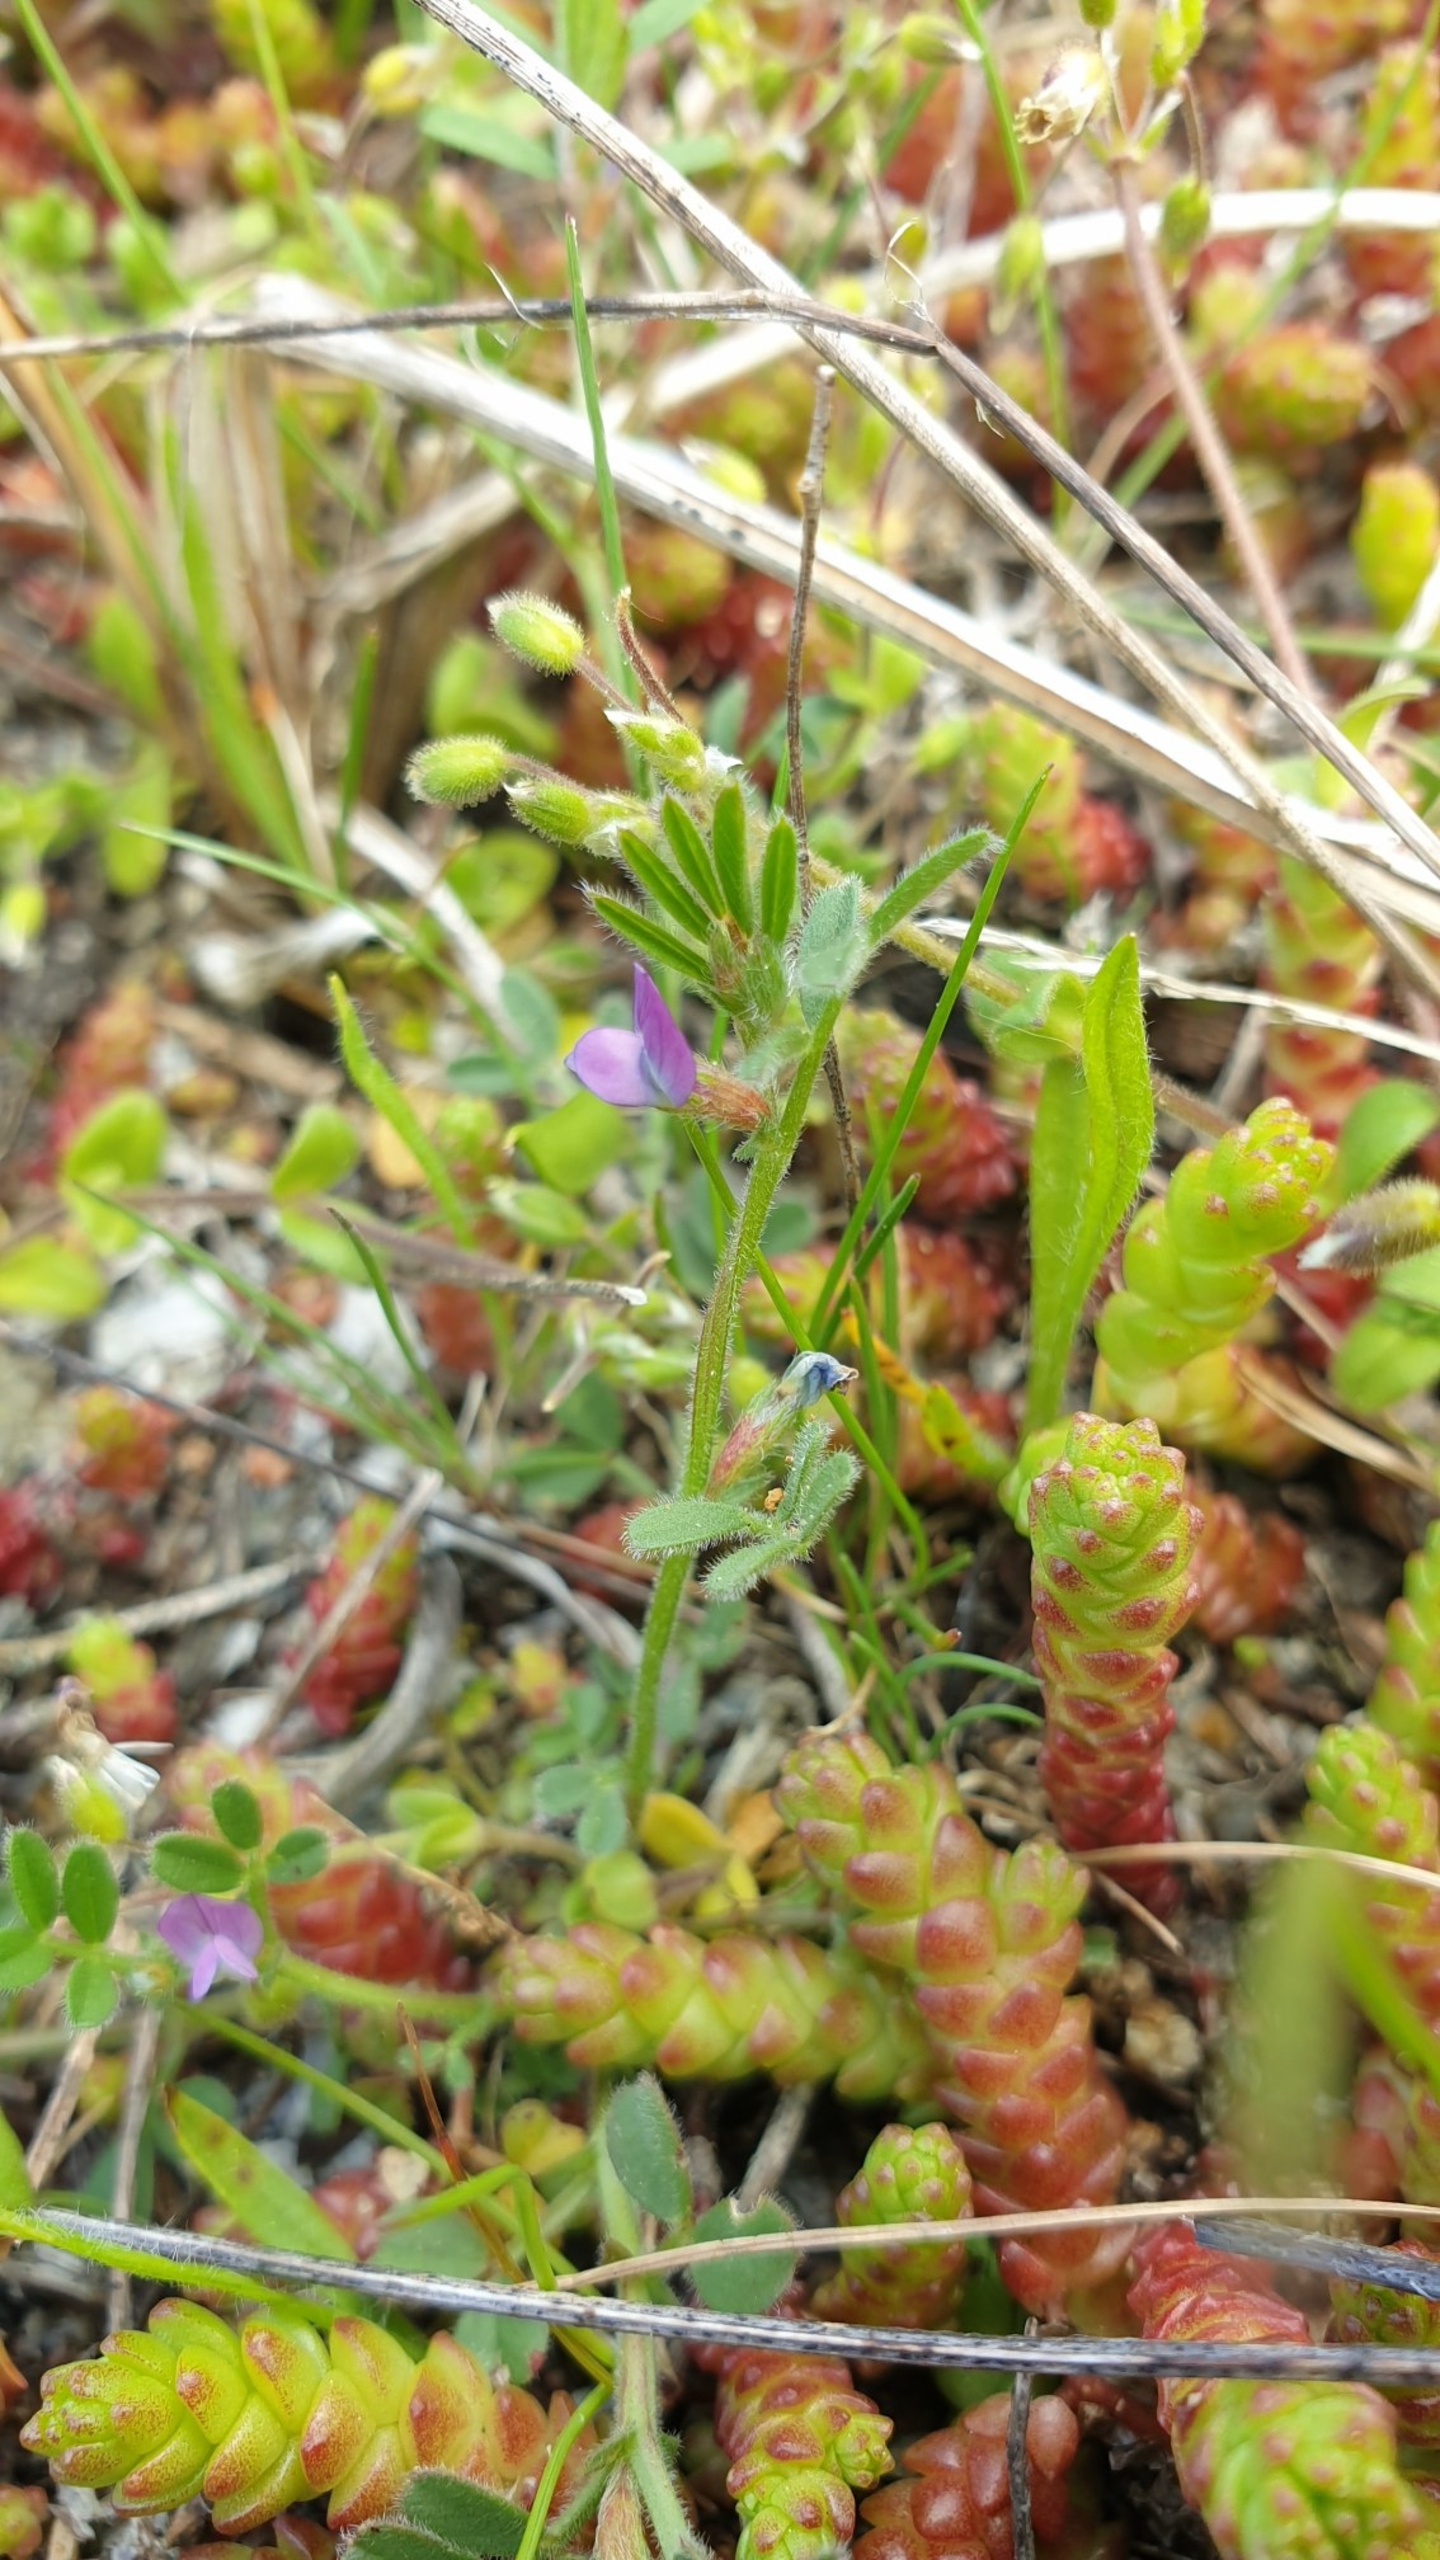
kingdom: Plantae
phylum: Tracheophyta
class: Magnoliopsida
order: Fabales
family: Fabaceae
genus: Vicia
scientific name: Vicia lathyroides
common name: Vår-vikke
